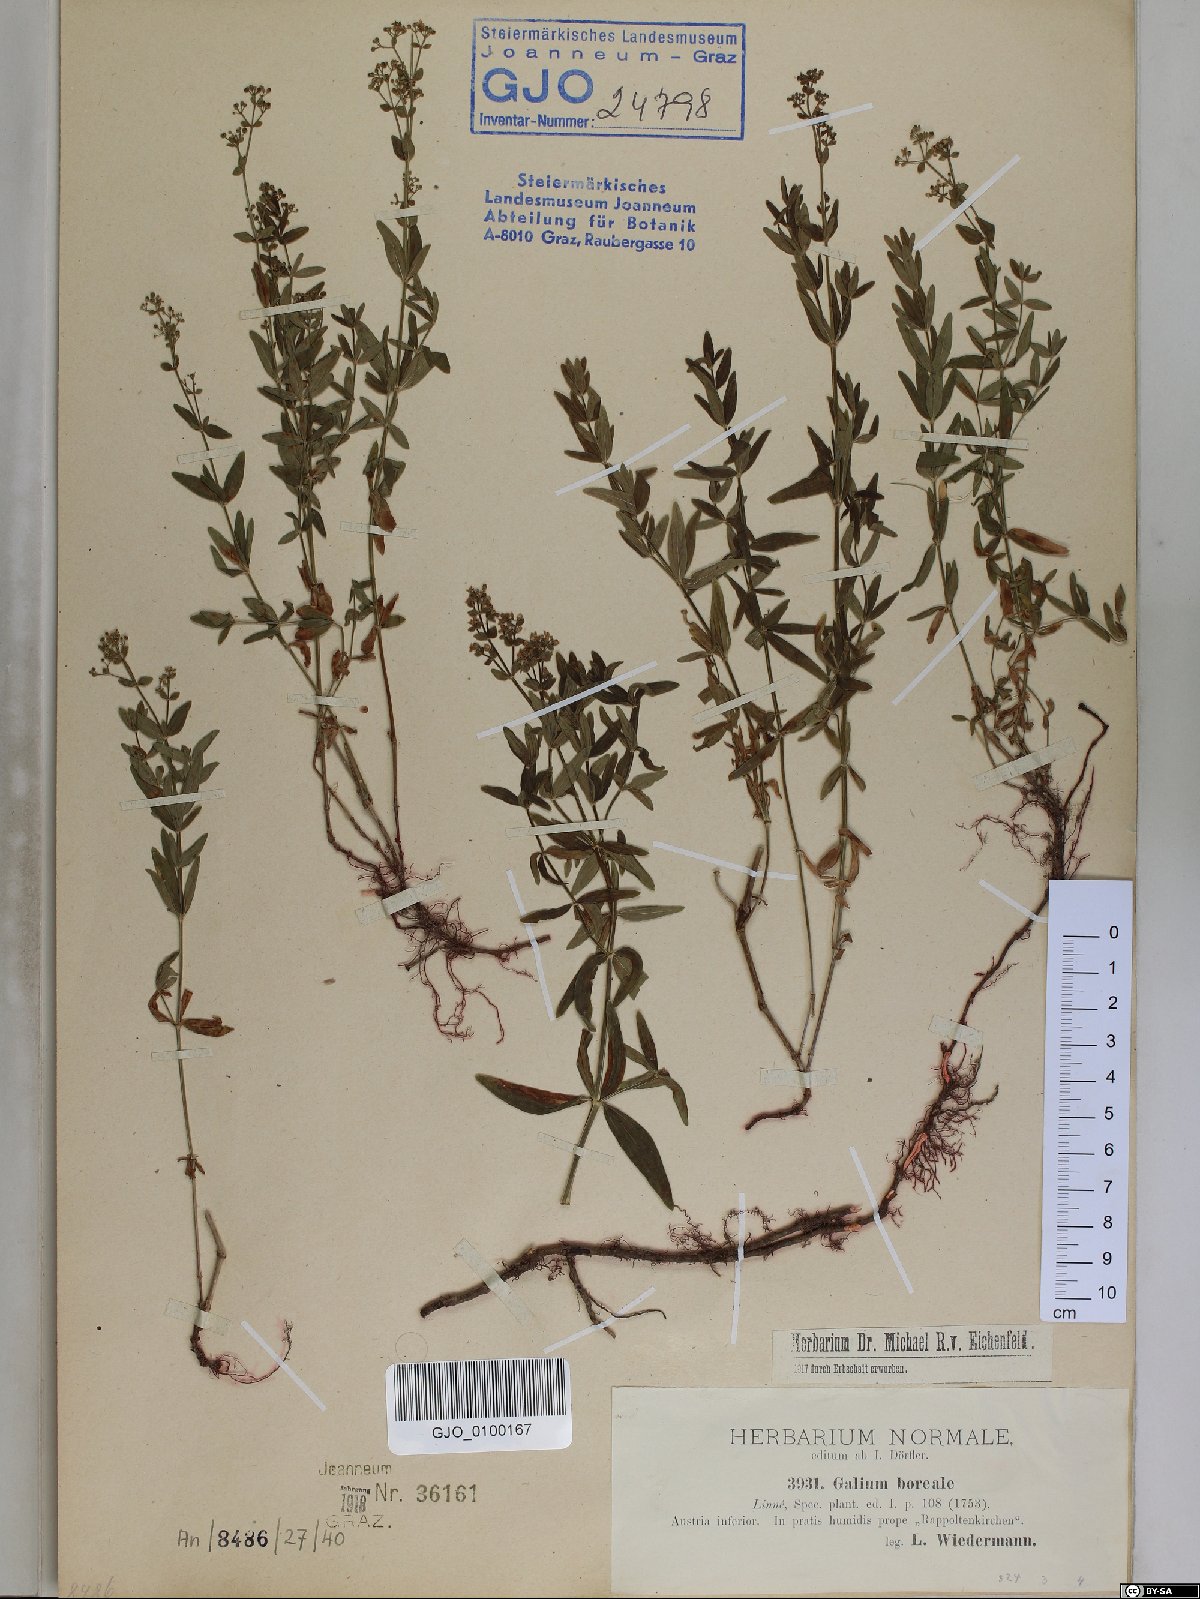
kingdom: Plantae
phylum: Tracheophyta
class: Magnoliopsida
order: Gentianales
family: Rubiaceae
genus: Galium
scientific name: Galium boreale
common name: Northern bedstraw
